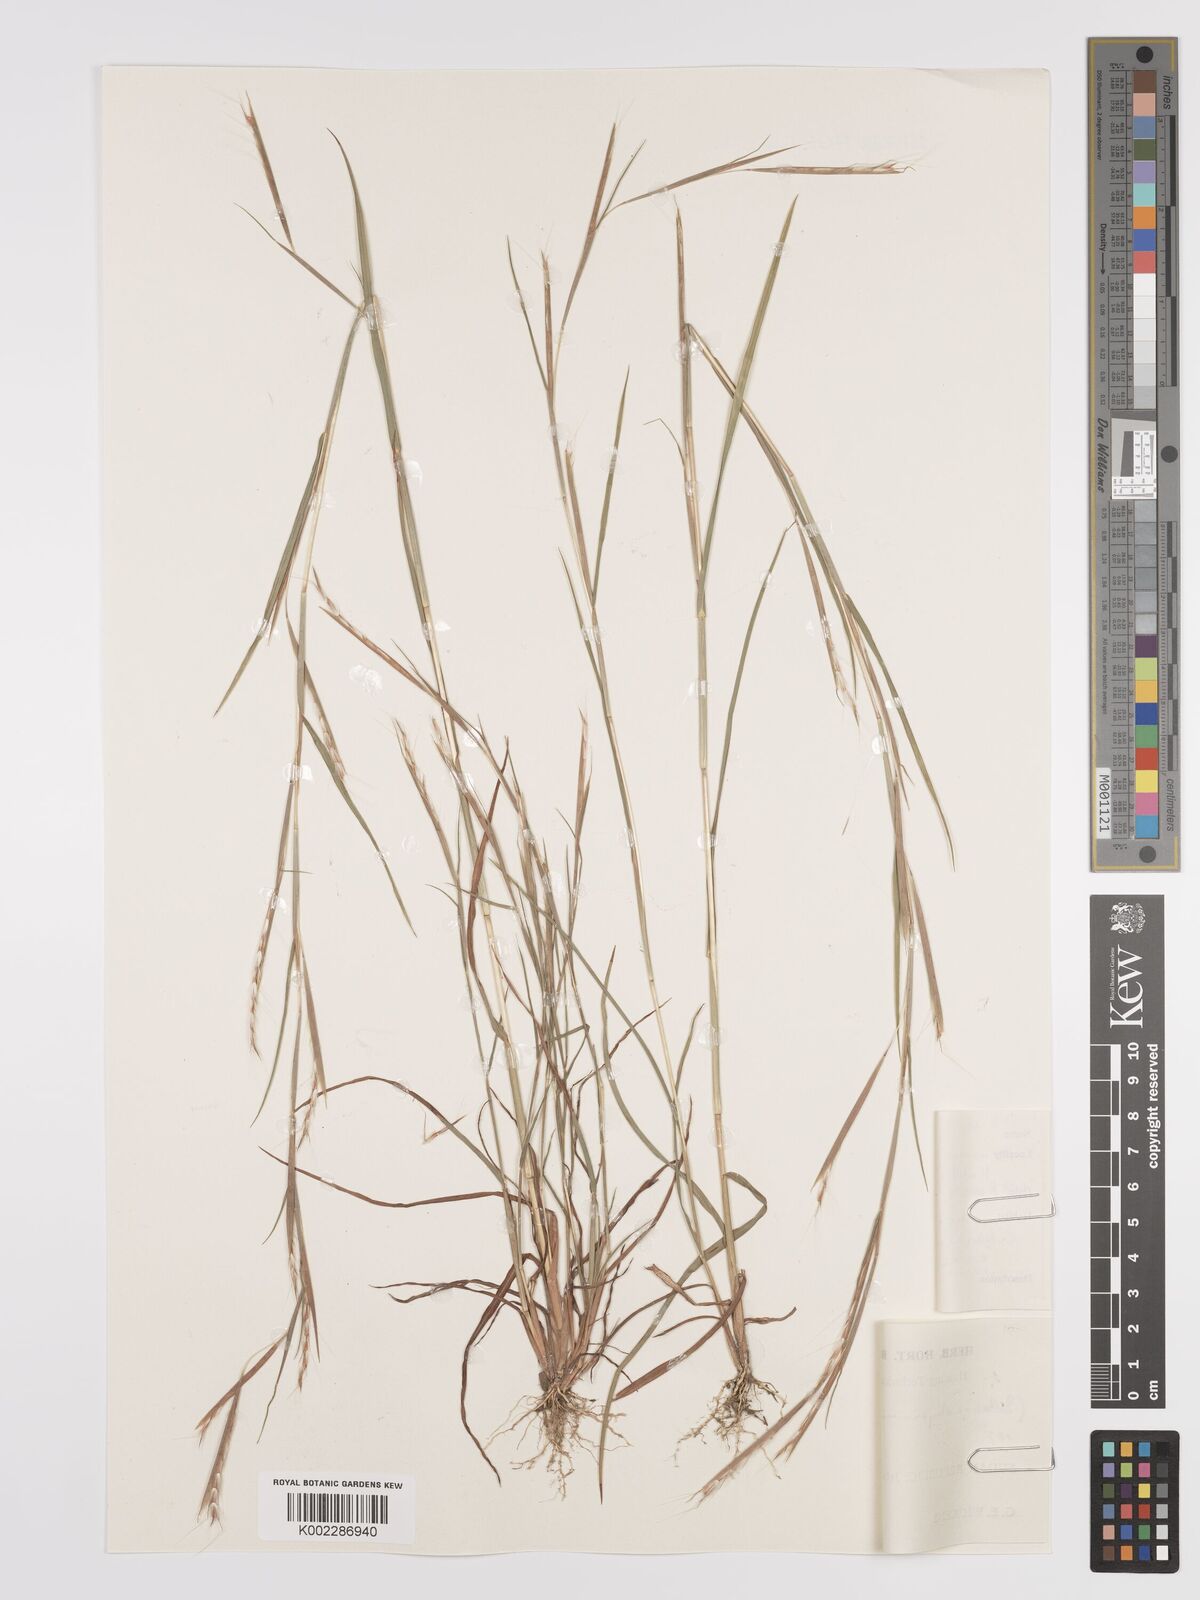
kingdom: Plantae
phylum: Tracheophyta
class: Liliopsida
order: Poales
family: Poaceae
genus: Schizachyrium
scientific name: Schizachyrium exile
